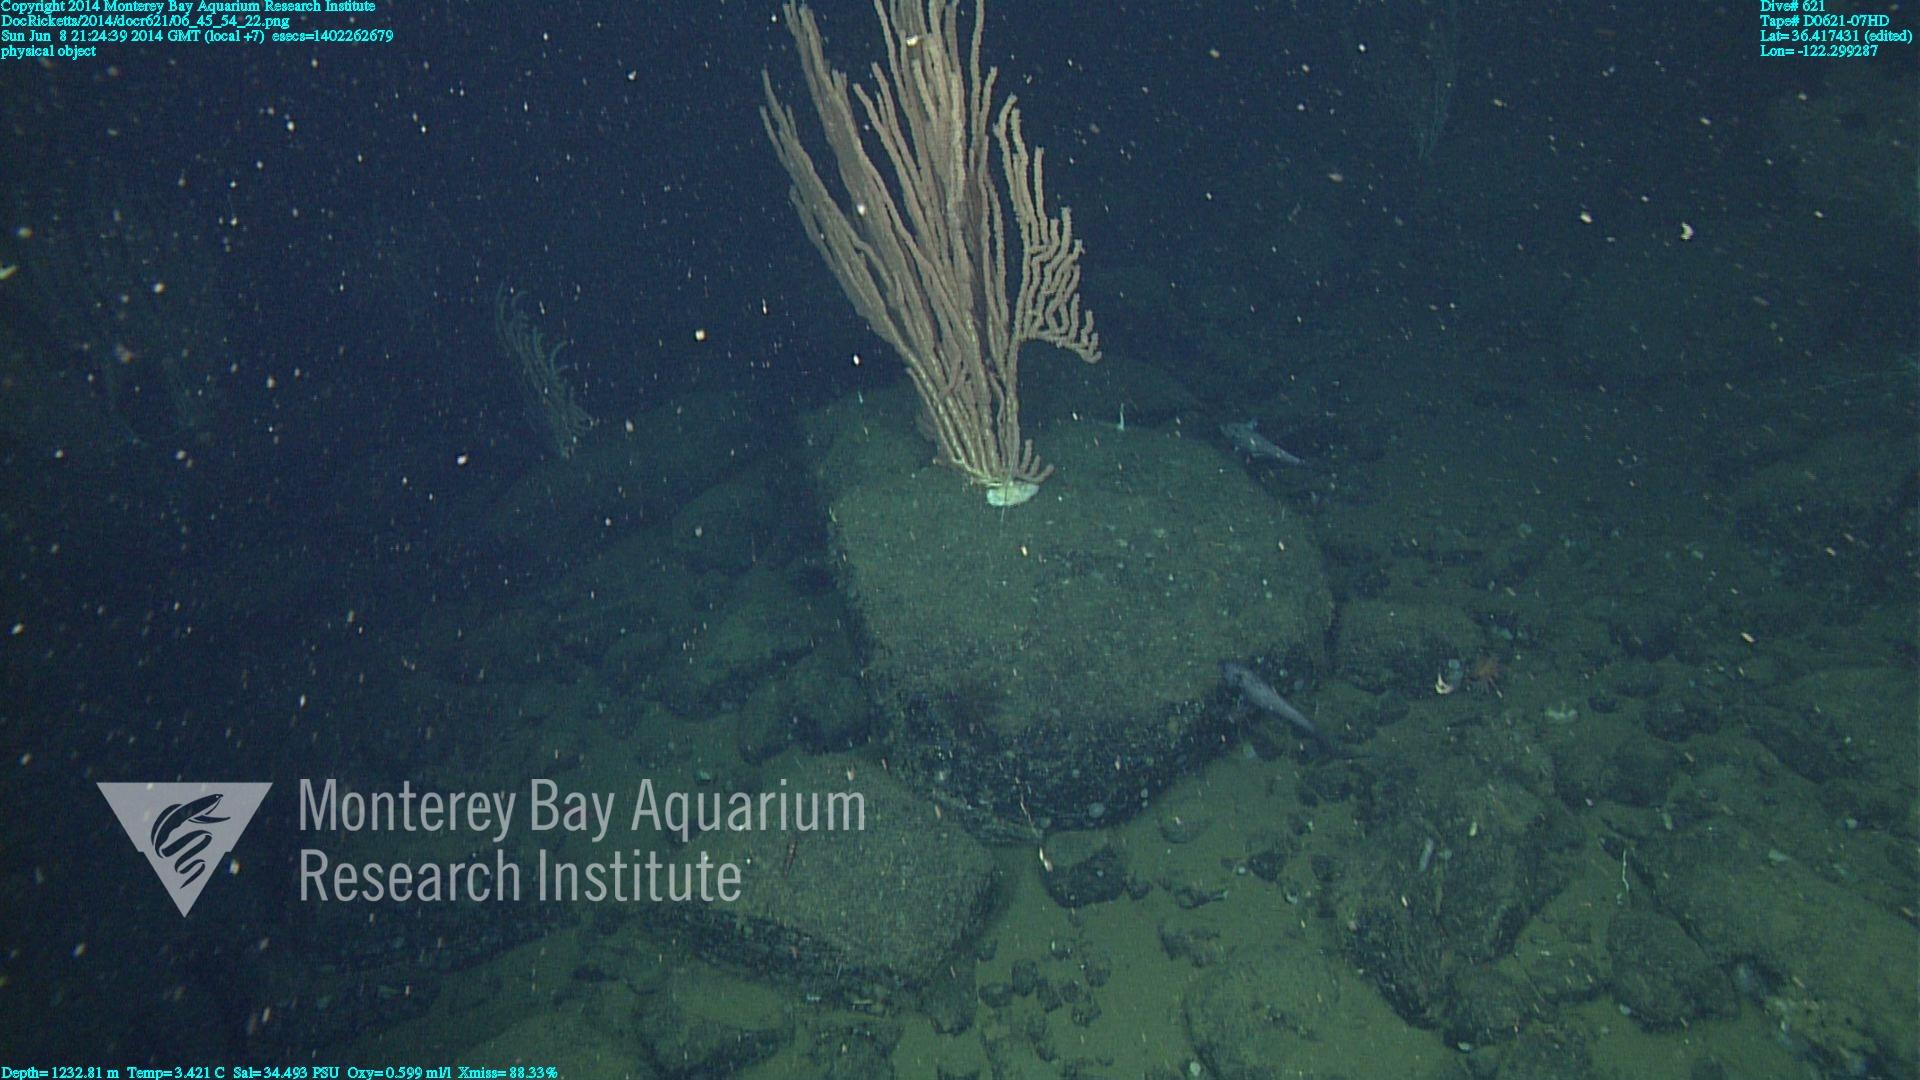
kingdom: Animalia
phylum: Cnidaria
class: Anthozoa
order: Scleralcyonacea
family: Keratoisididae
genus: Keratoisis
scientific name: Keratoisis
